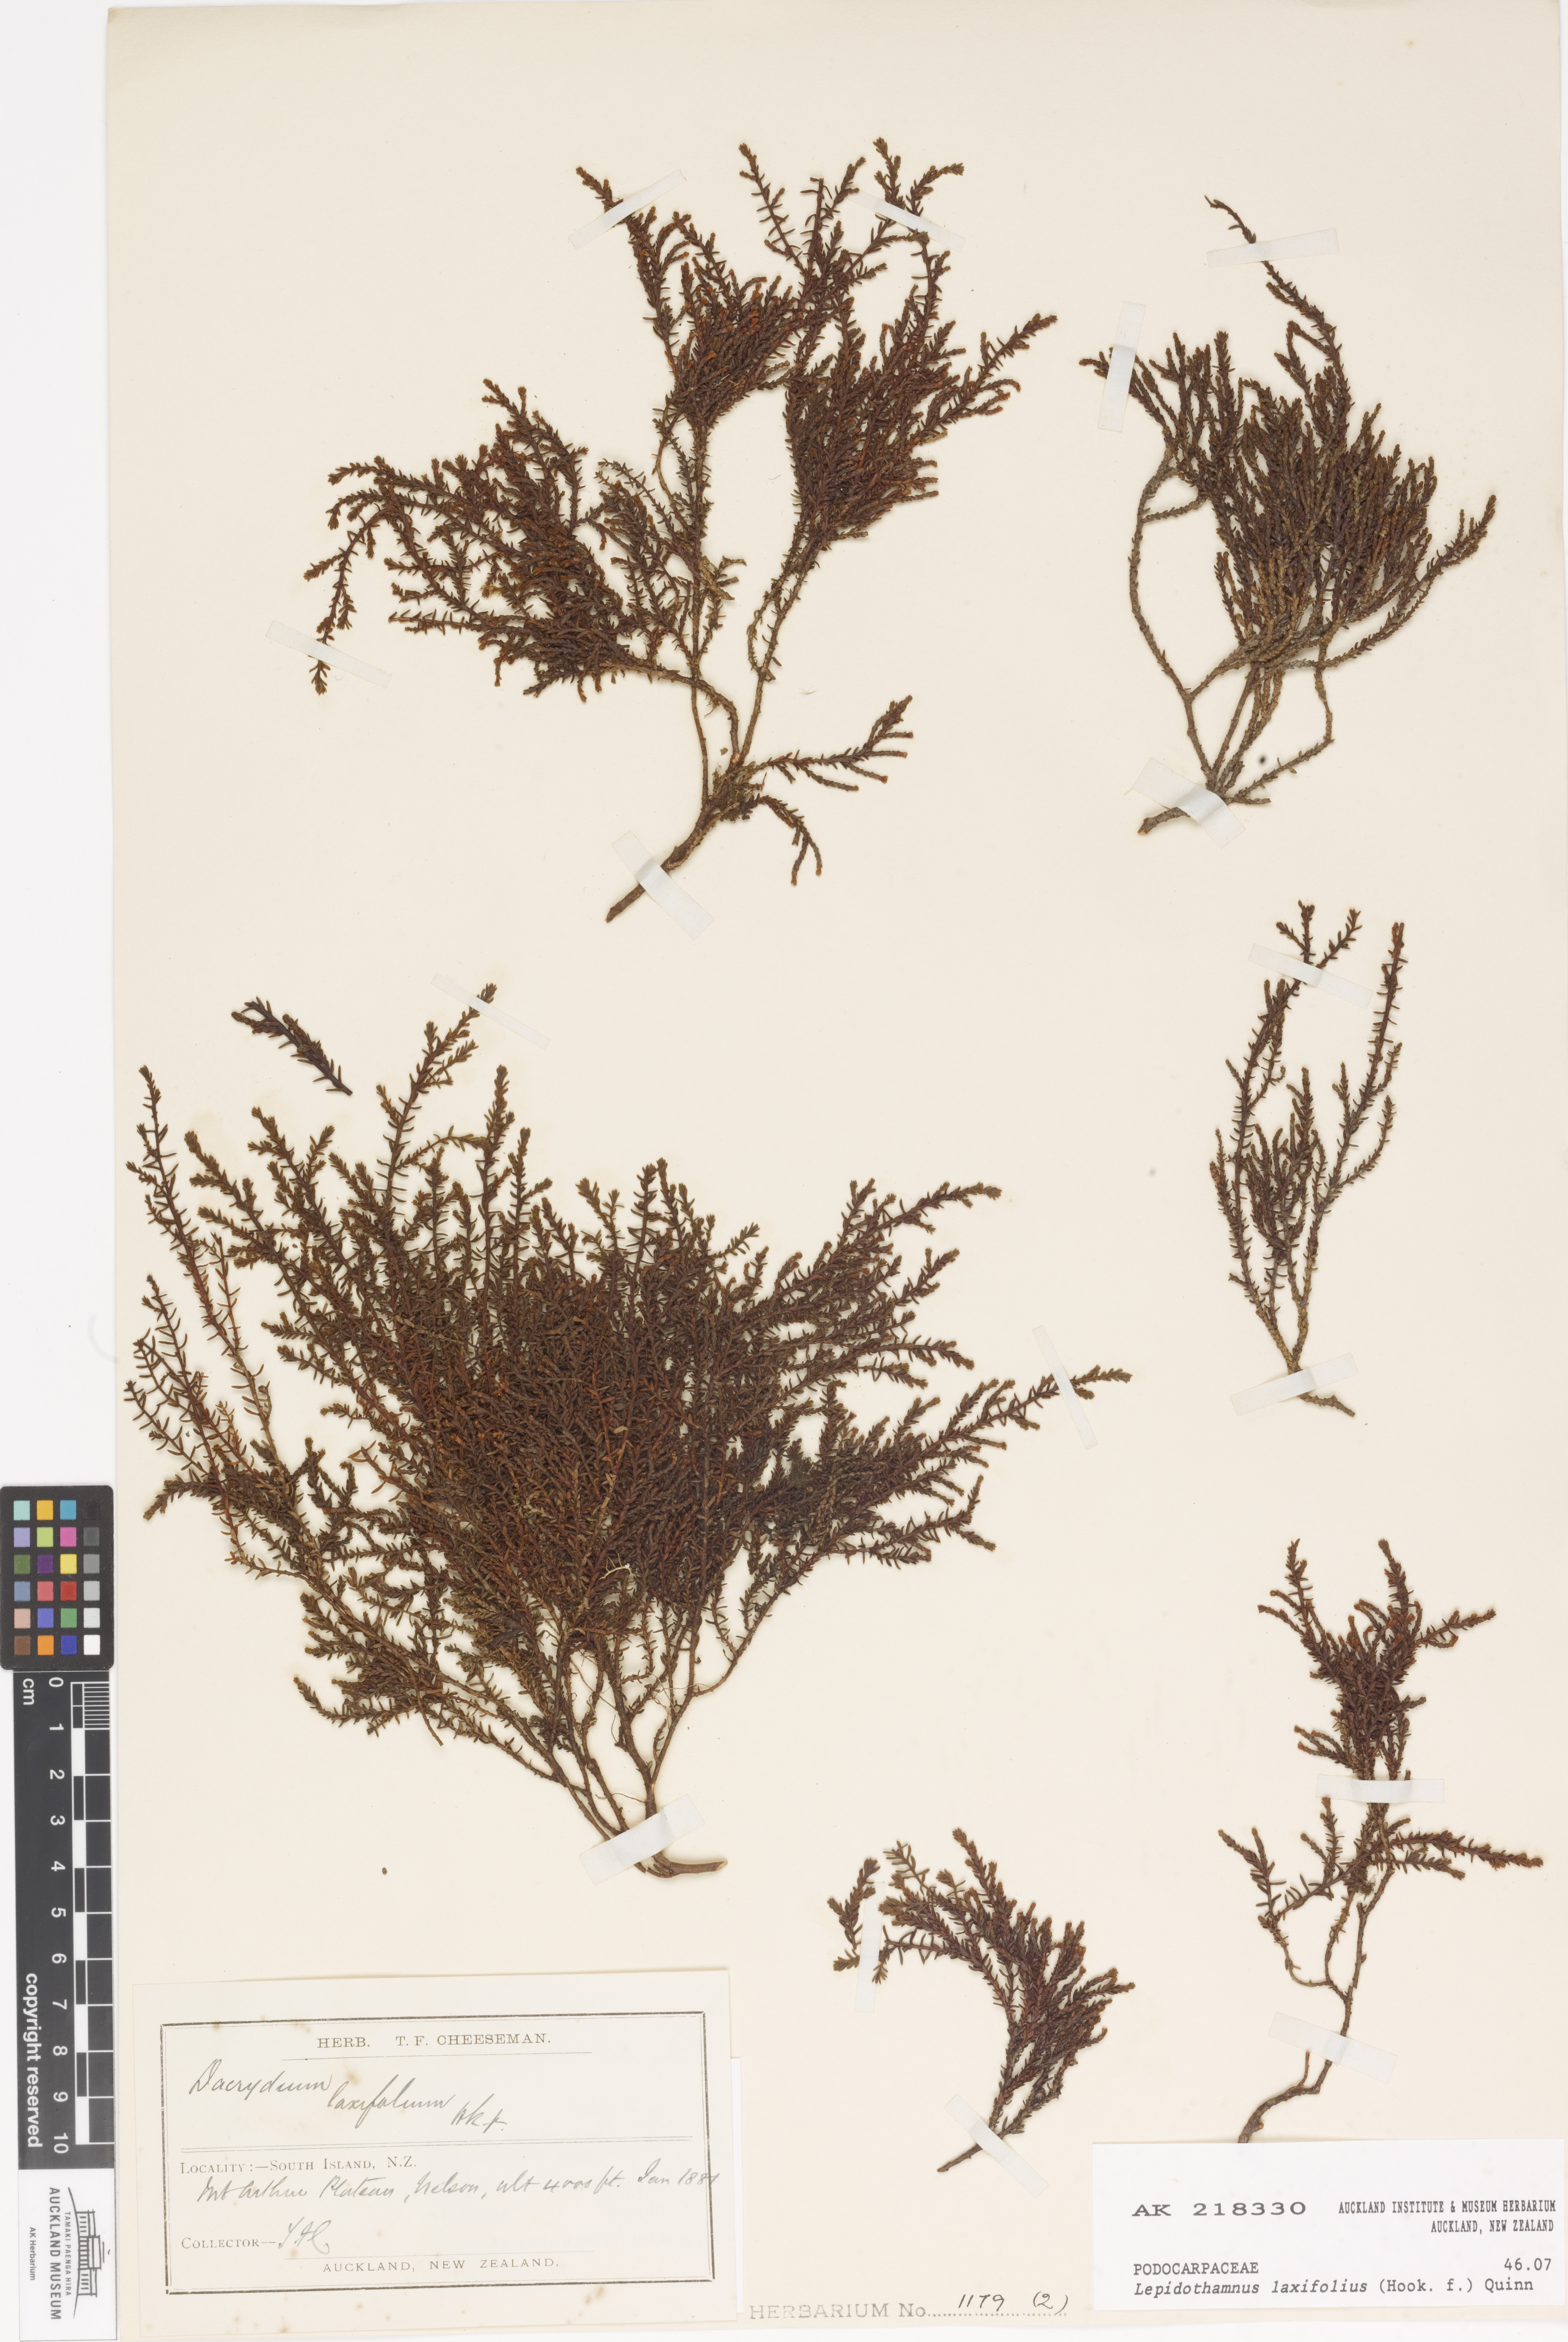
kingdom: Plantae
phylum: Tracheophyta
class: Pinopsida
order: Pinales
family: Podocarpaceae
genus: Lepidothamnus
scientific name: Lepidothamnus laxifolius
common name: Pygmy pine
